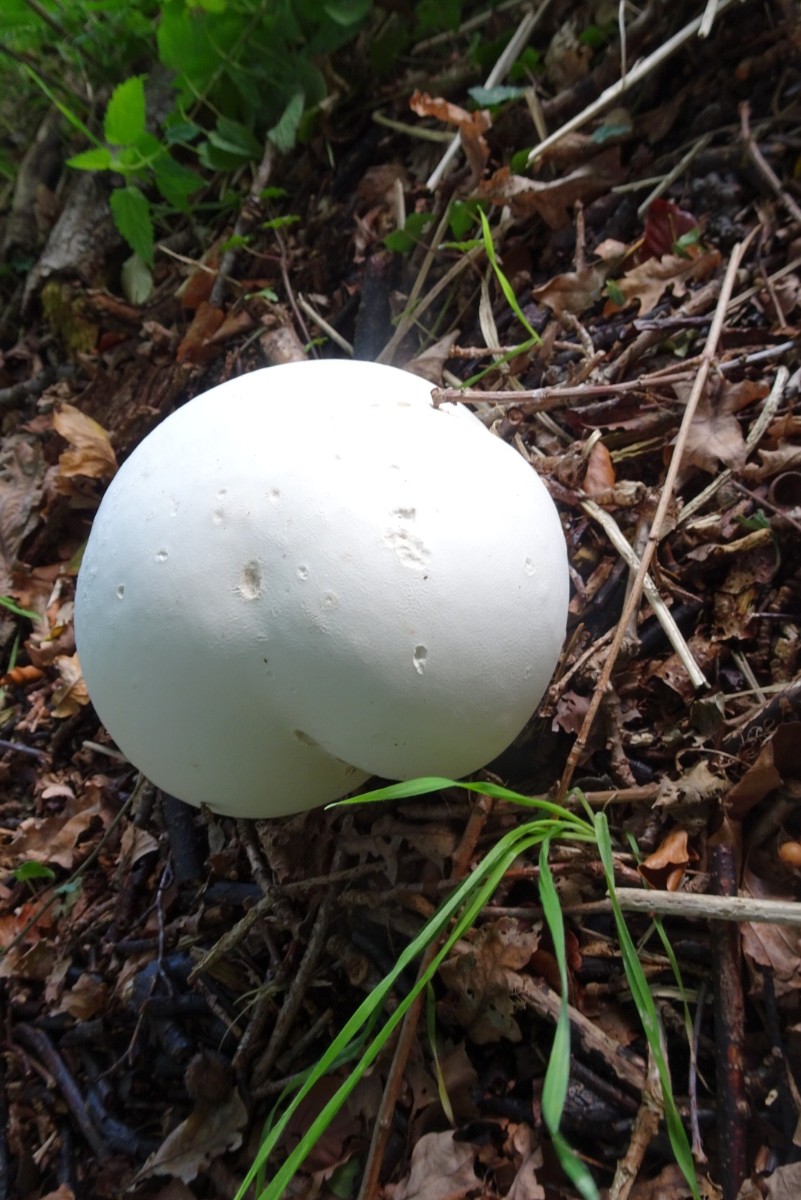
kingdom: Fungi
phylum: Basidiomycota
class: Agaricomycetes
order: Agaricales
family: Lycoperdaceae
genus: Calvatia
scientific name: Calvatia gigantea
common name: kæmpestøvbold
